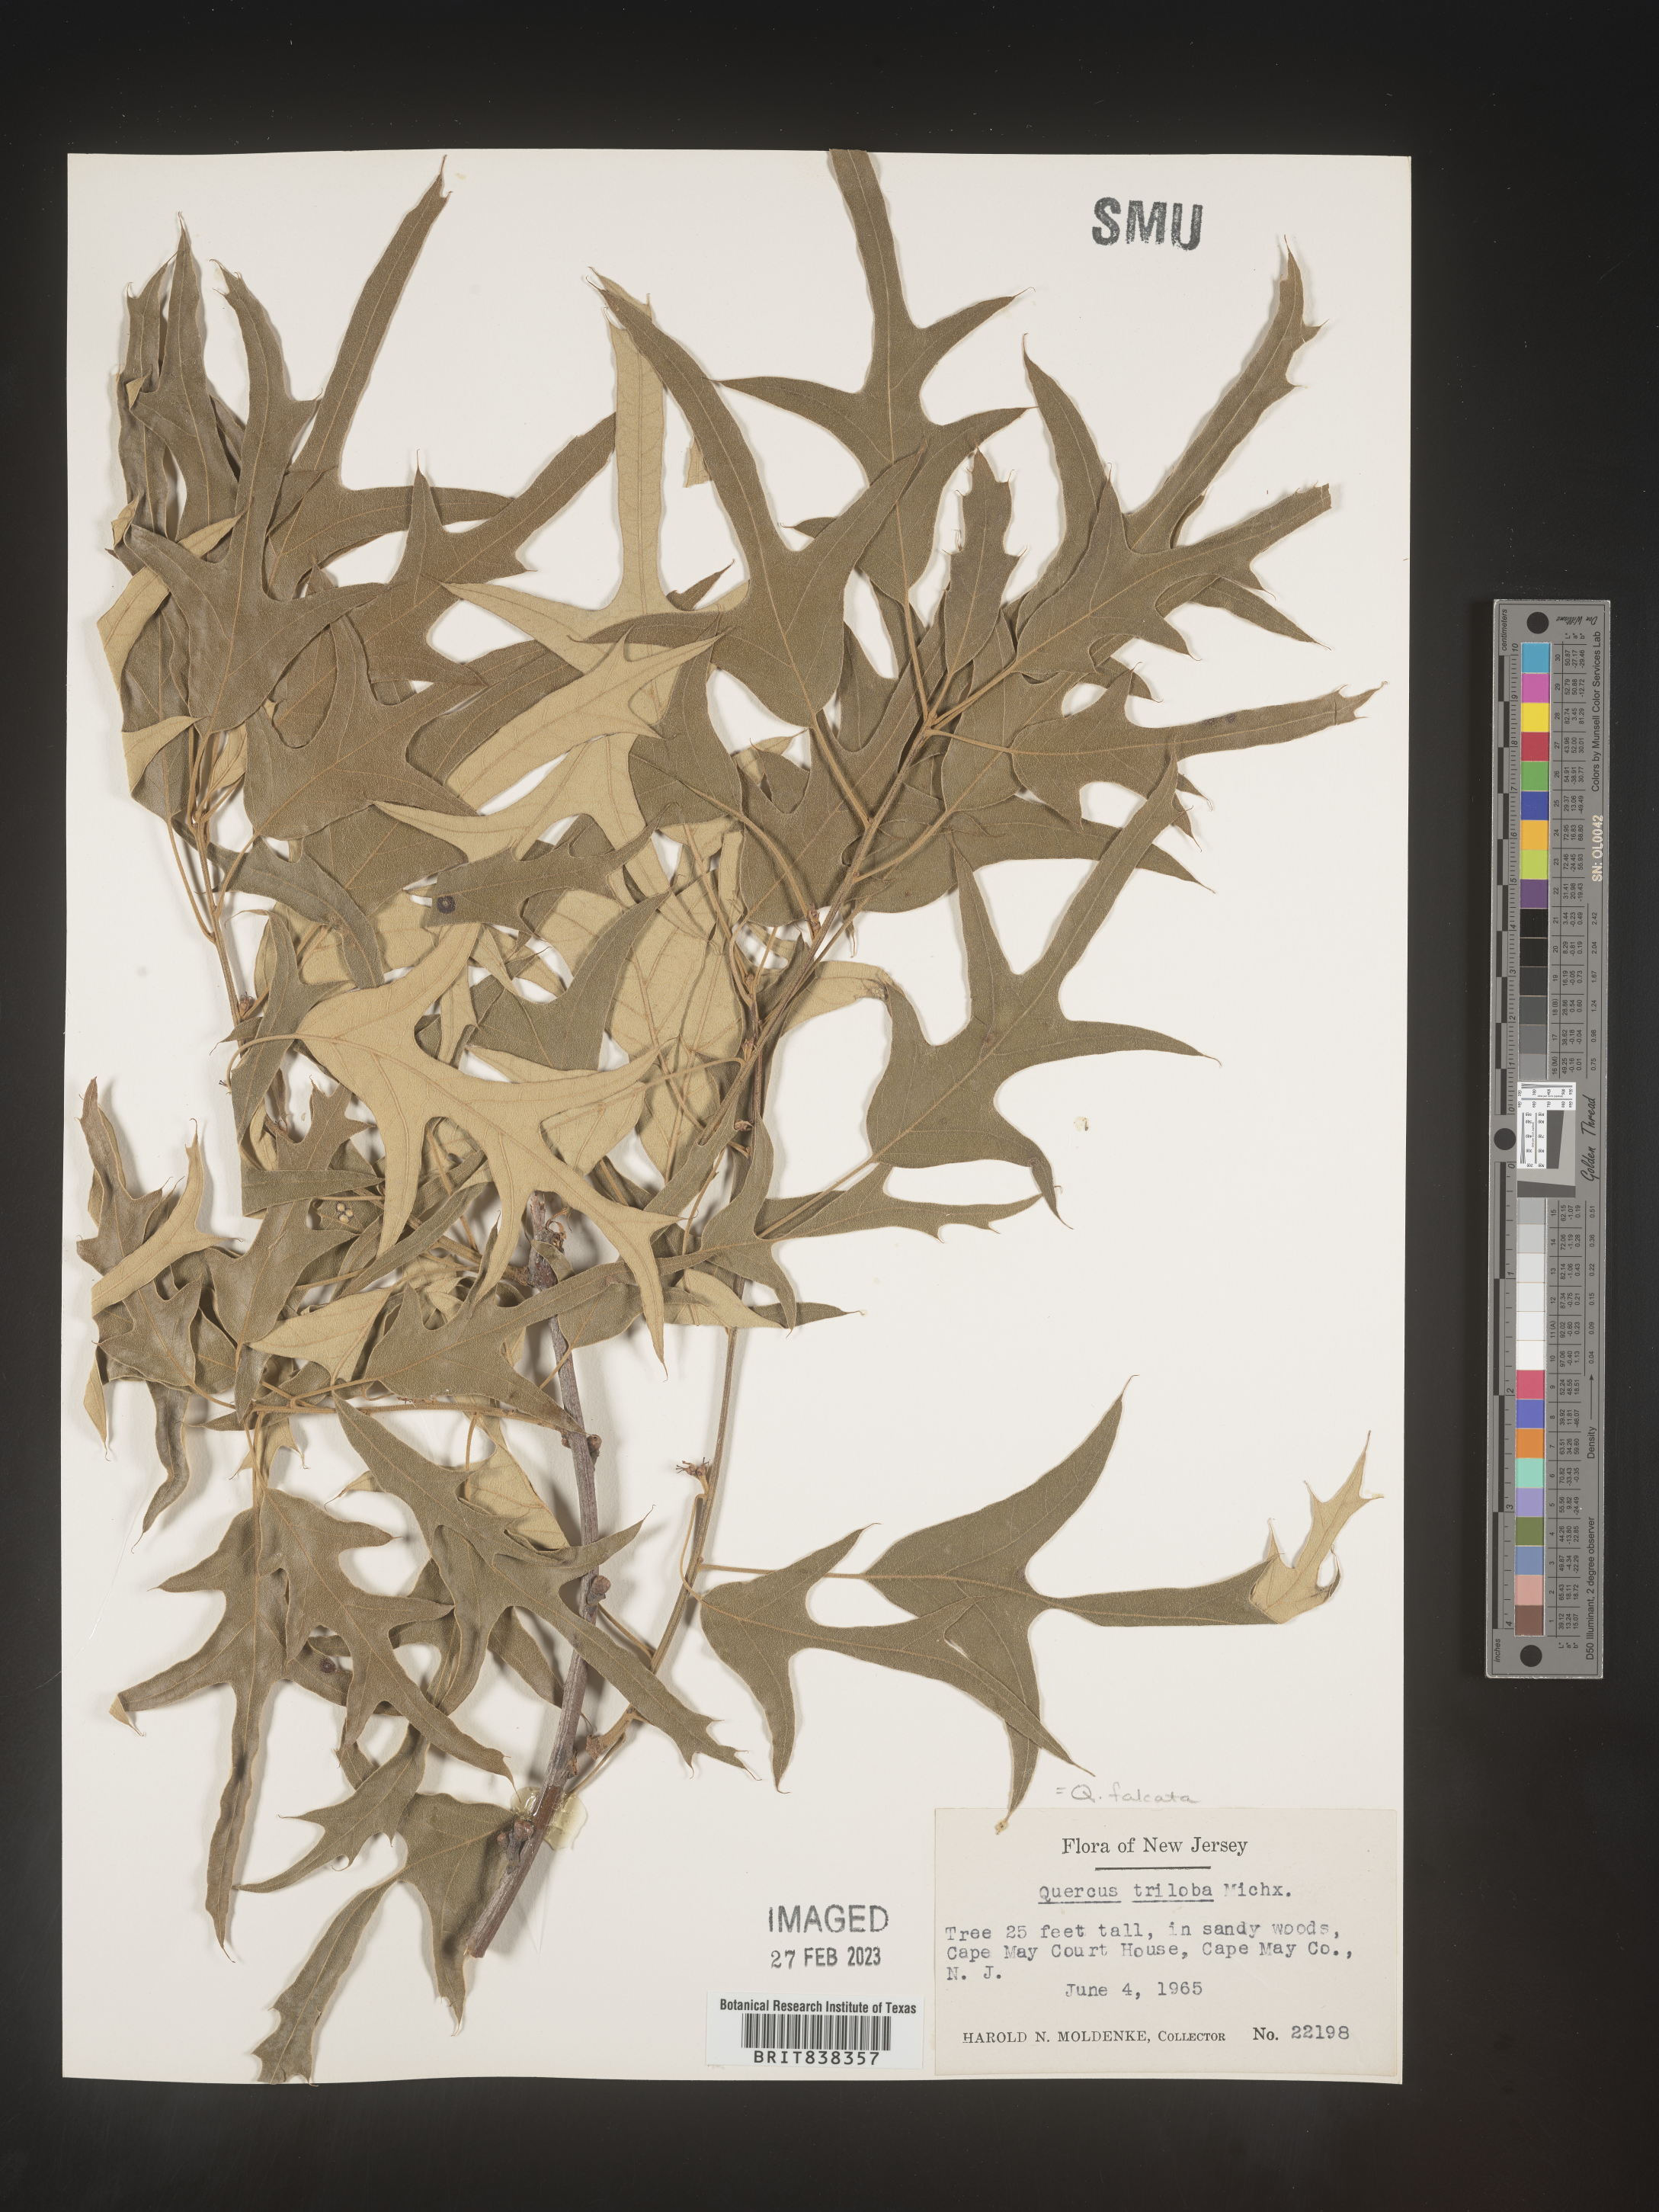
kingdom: Plantae
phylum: Tracheophyta
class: Magnoliopsida
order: Fagales
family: Fagaceae
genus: Quercus
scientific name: Quercus falcata
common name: Southern red oak
